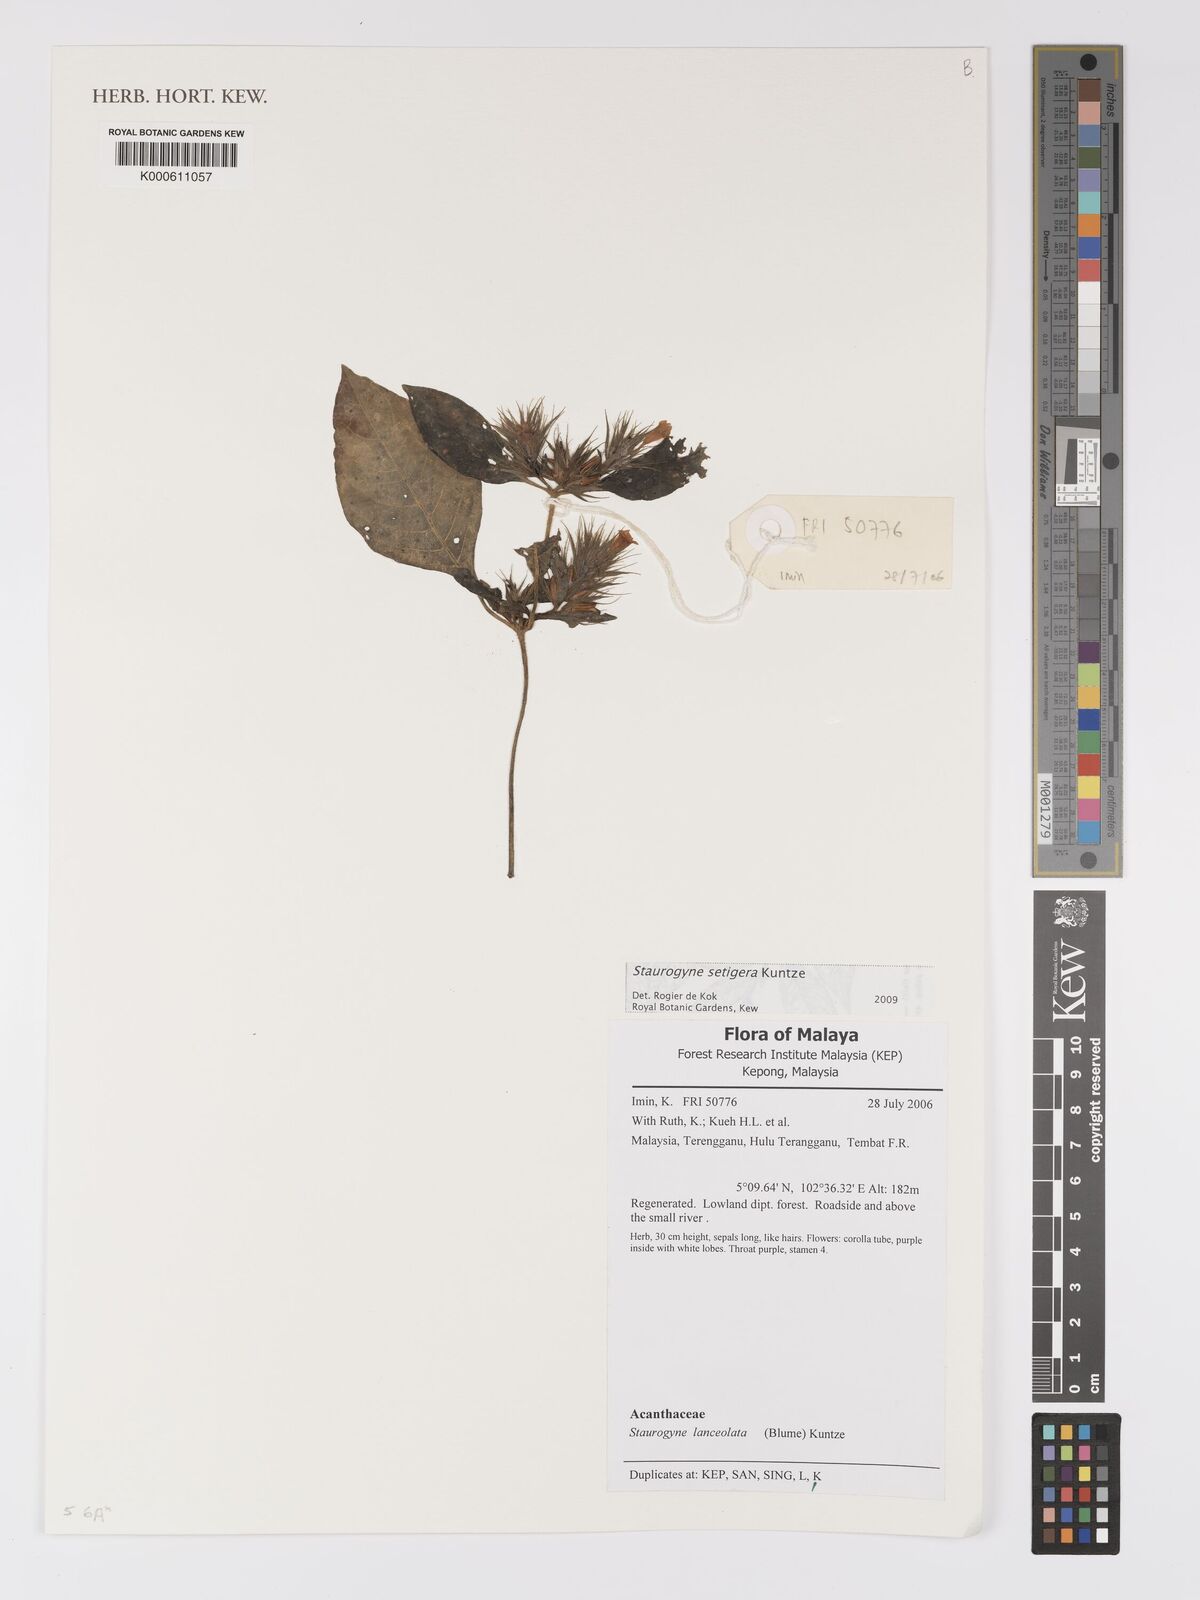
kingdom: Plantae
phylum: Tracheophyta
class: Magnoliopsida
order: Lamiales
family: Acanthaceae
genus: Staurogyne
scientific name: Staurogyne setigera
